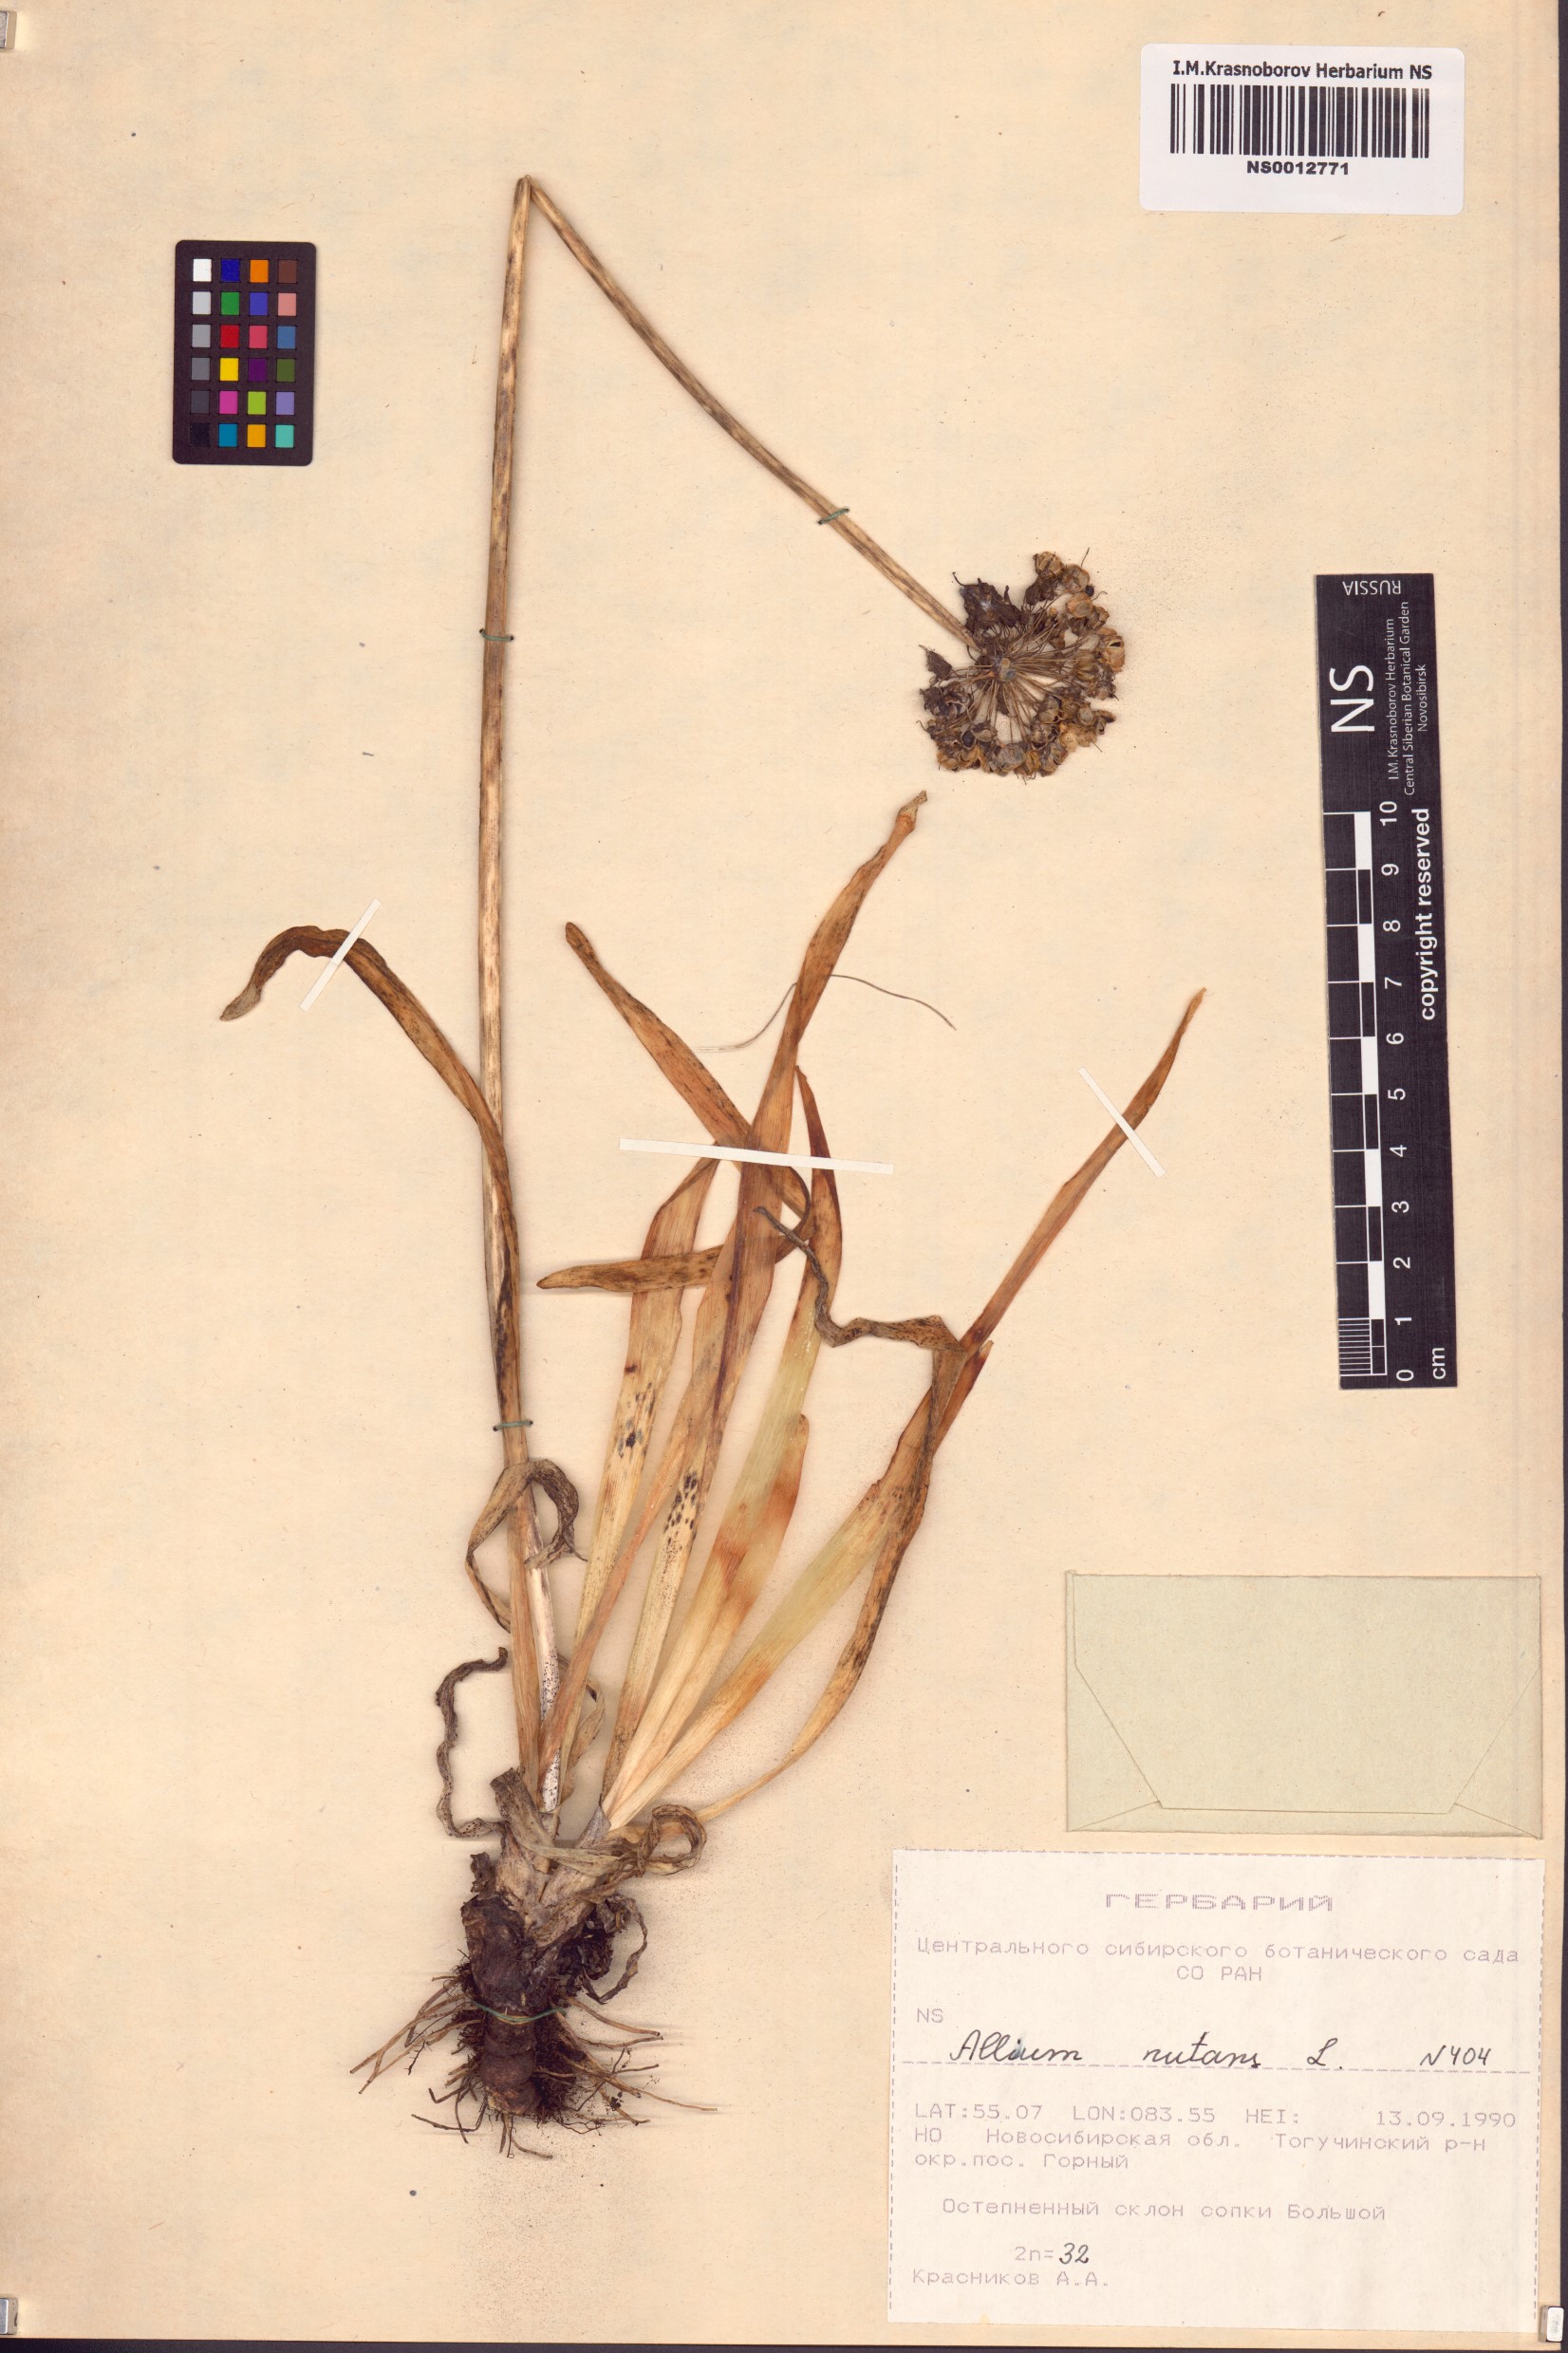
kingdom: Plantae
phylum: Tracheophyta
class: Liliopsida
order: Asparagales
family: Amaryllidaceae
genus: Allium
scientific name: Allium nutans
